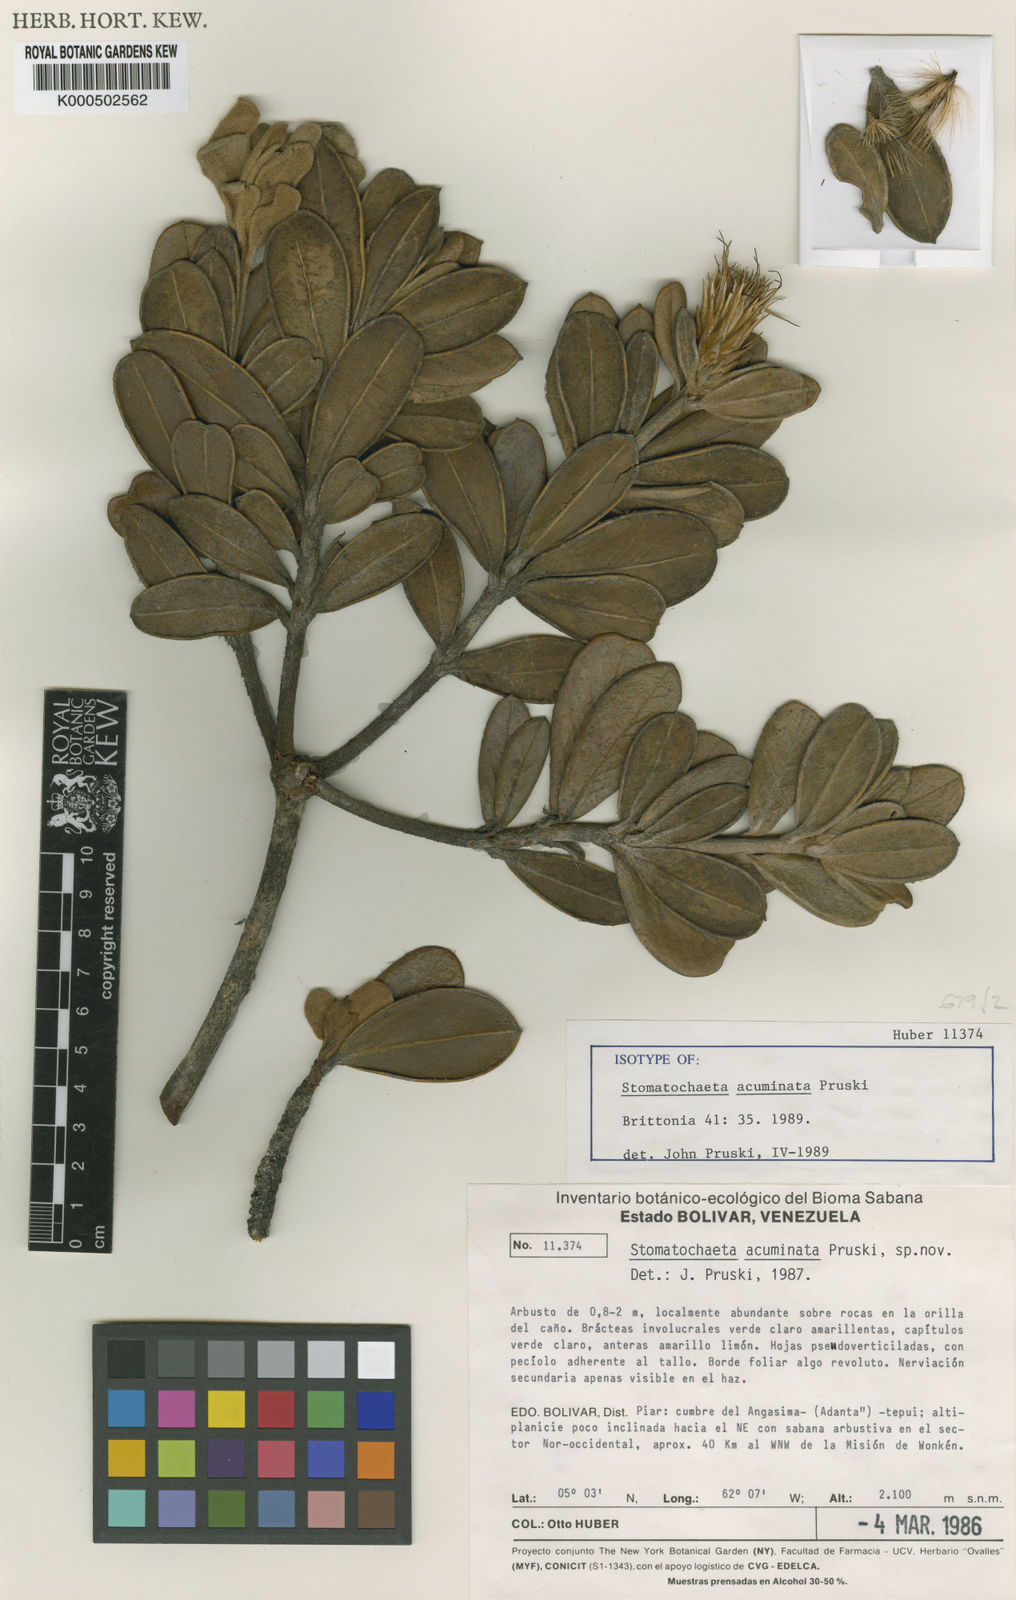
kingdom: Plantae
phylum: Tracheophyta
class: Magnoliopsida
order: Asterales
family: Asteraceae
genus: Stomatochaeta
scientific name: Stomatochaeta acuminata
